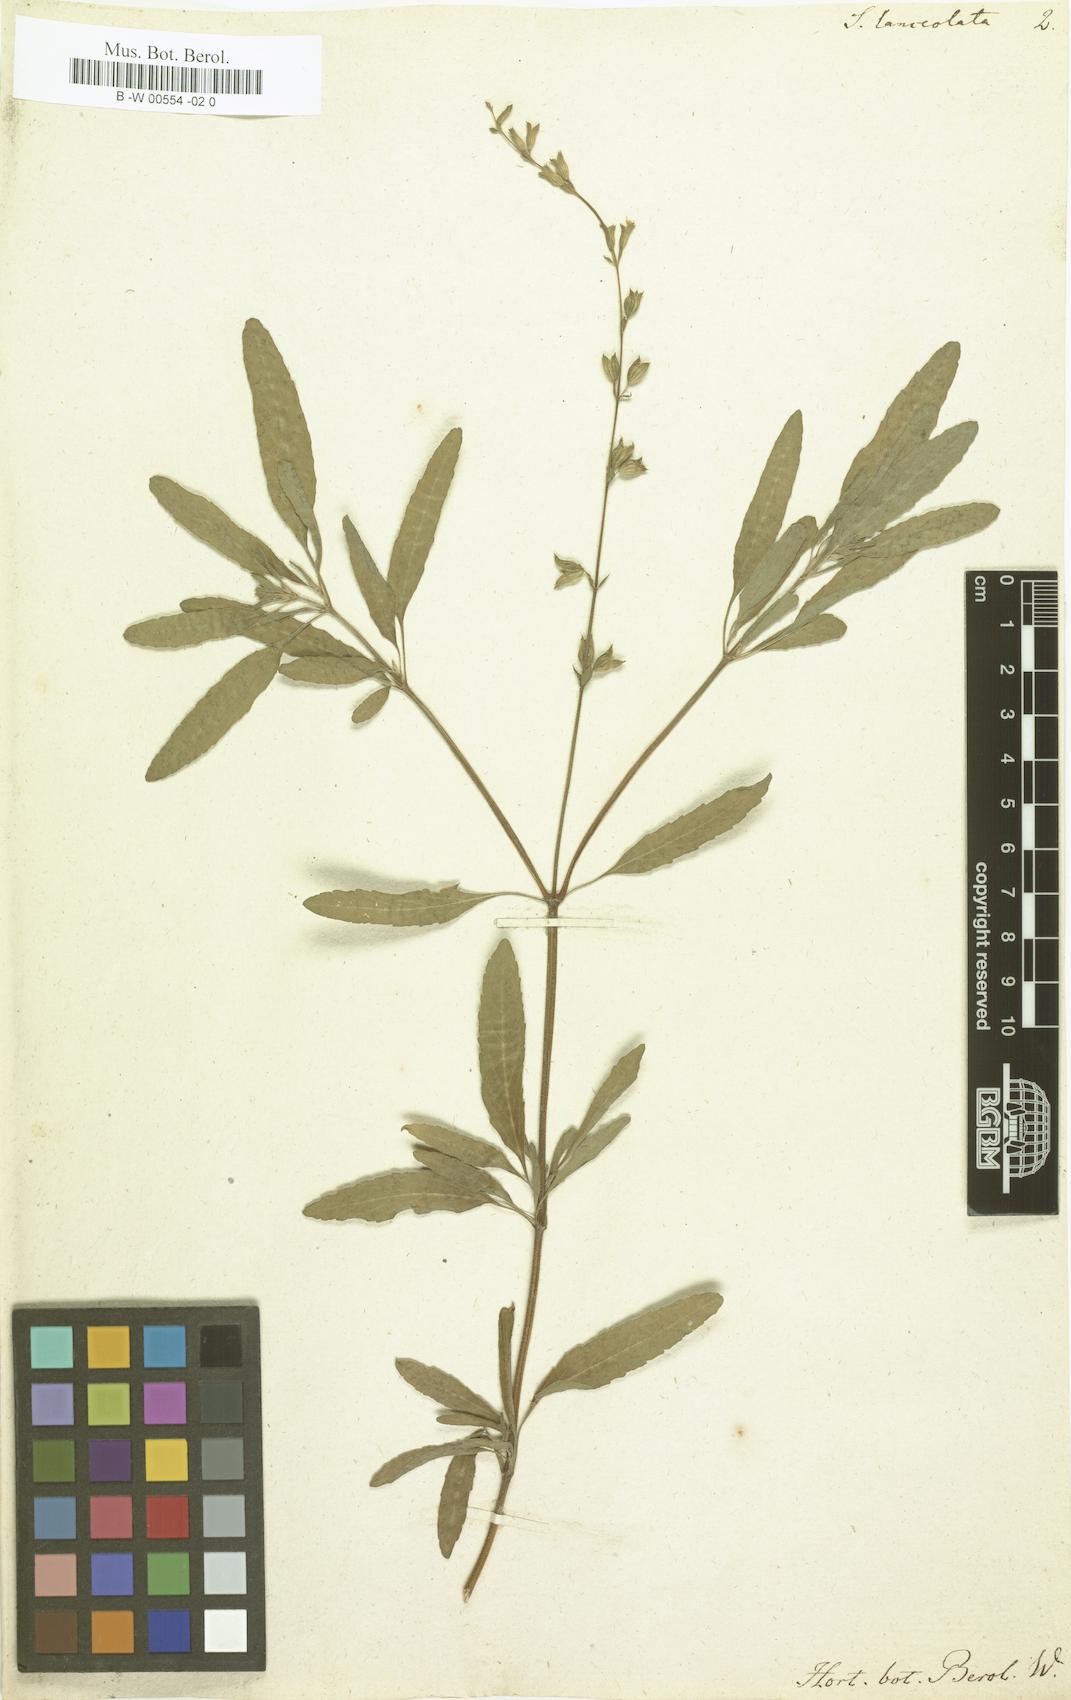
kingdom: Plantae
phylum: Tracheophyta
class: Magnoliopsida
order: Lamiales
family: Lamiaceae
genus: Salvia
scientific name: Salvia lanceolata
